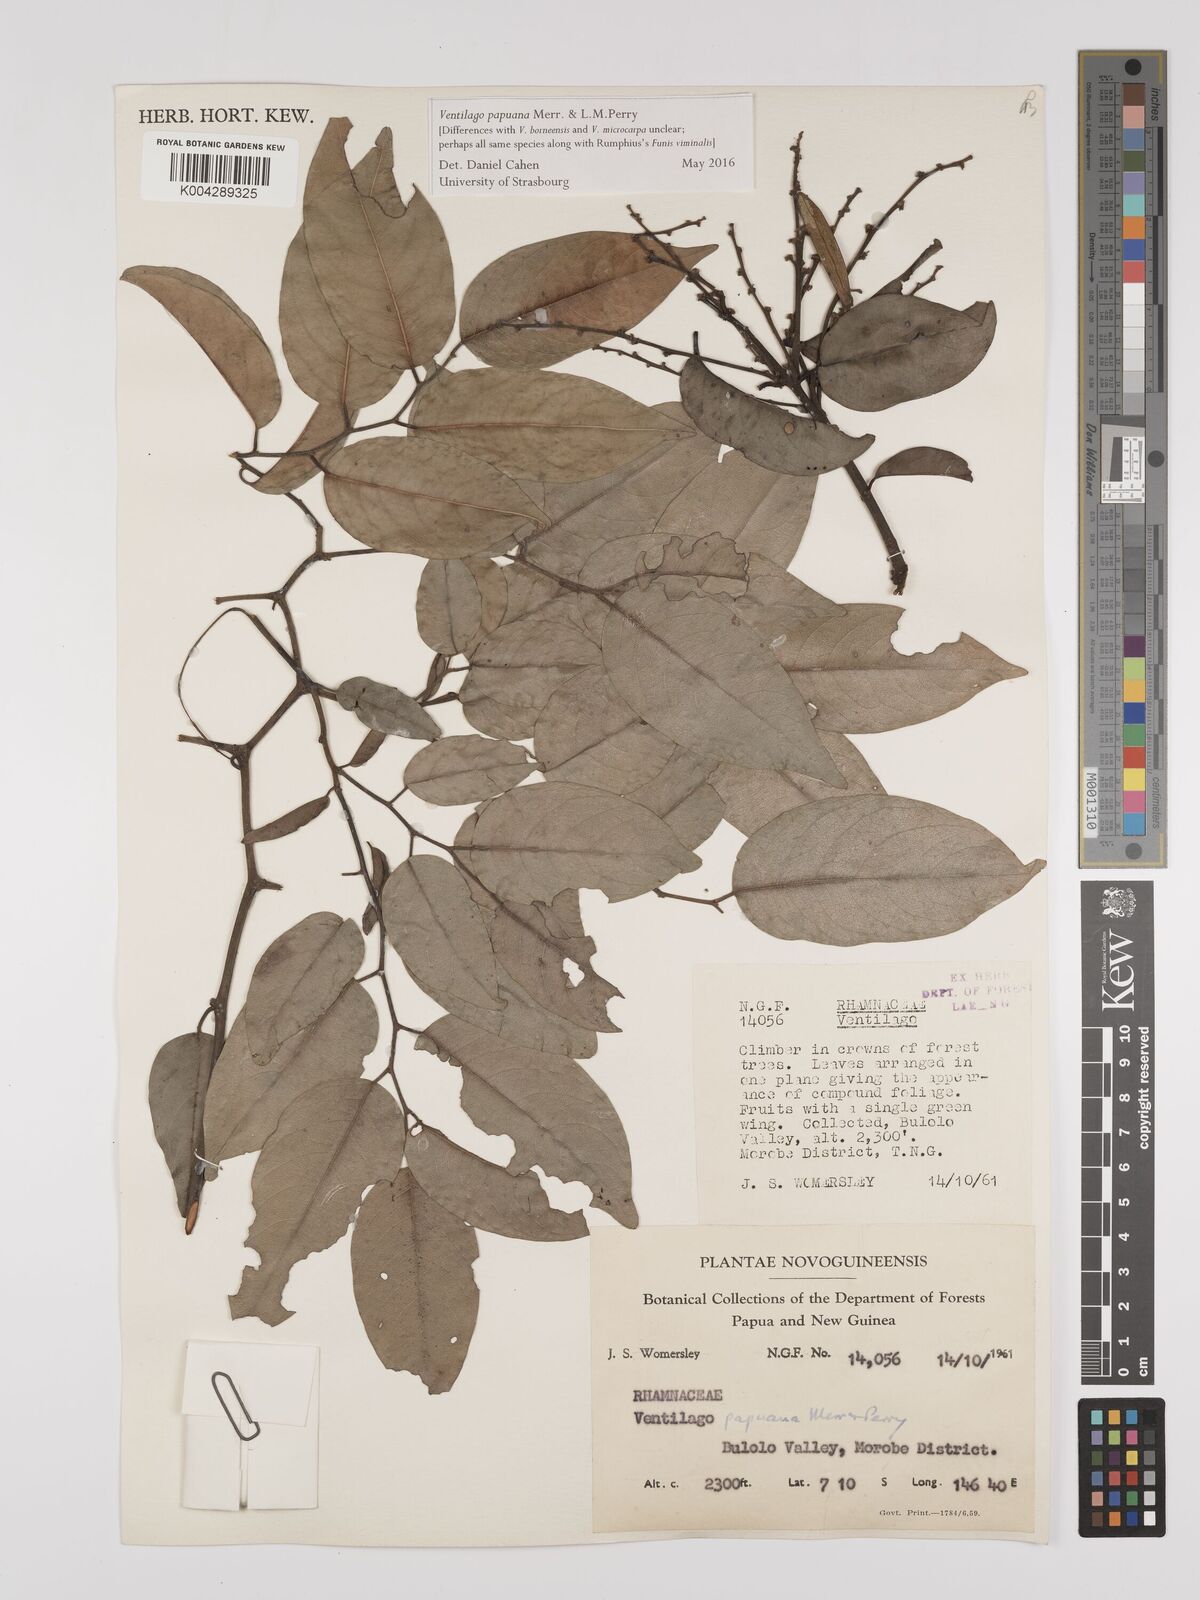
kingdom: Plantae
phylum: Tracheophyta
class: Magnoliopsida
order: Rosales
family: Rhamnaceae
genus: Ventilago
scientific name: Ventilago papuana
